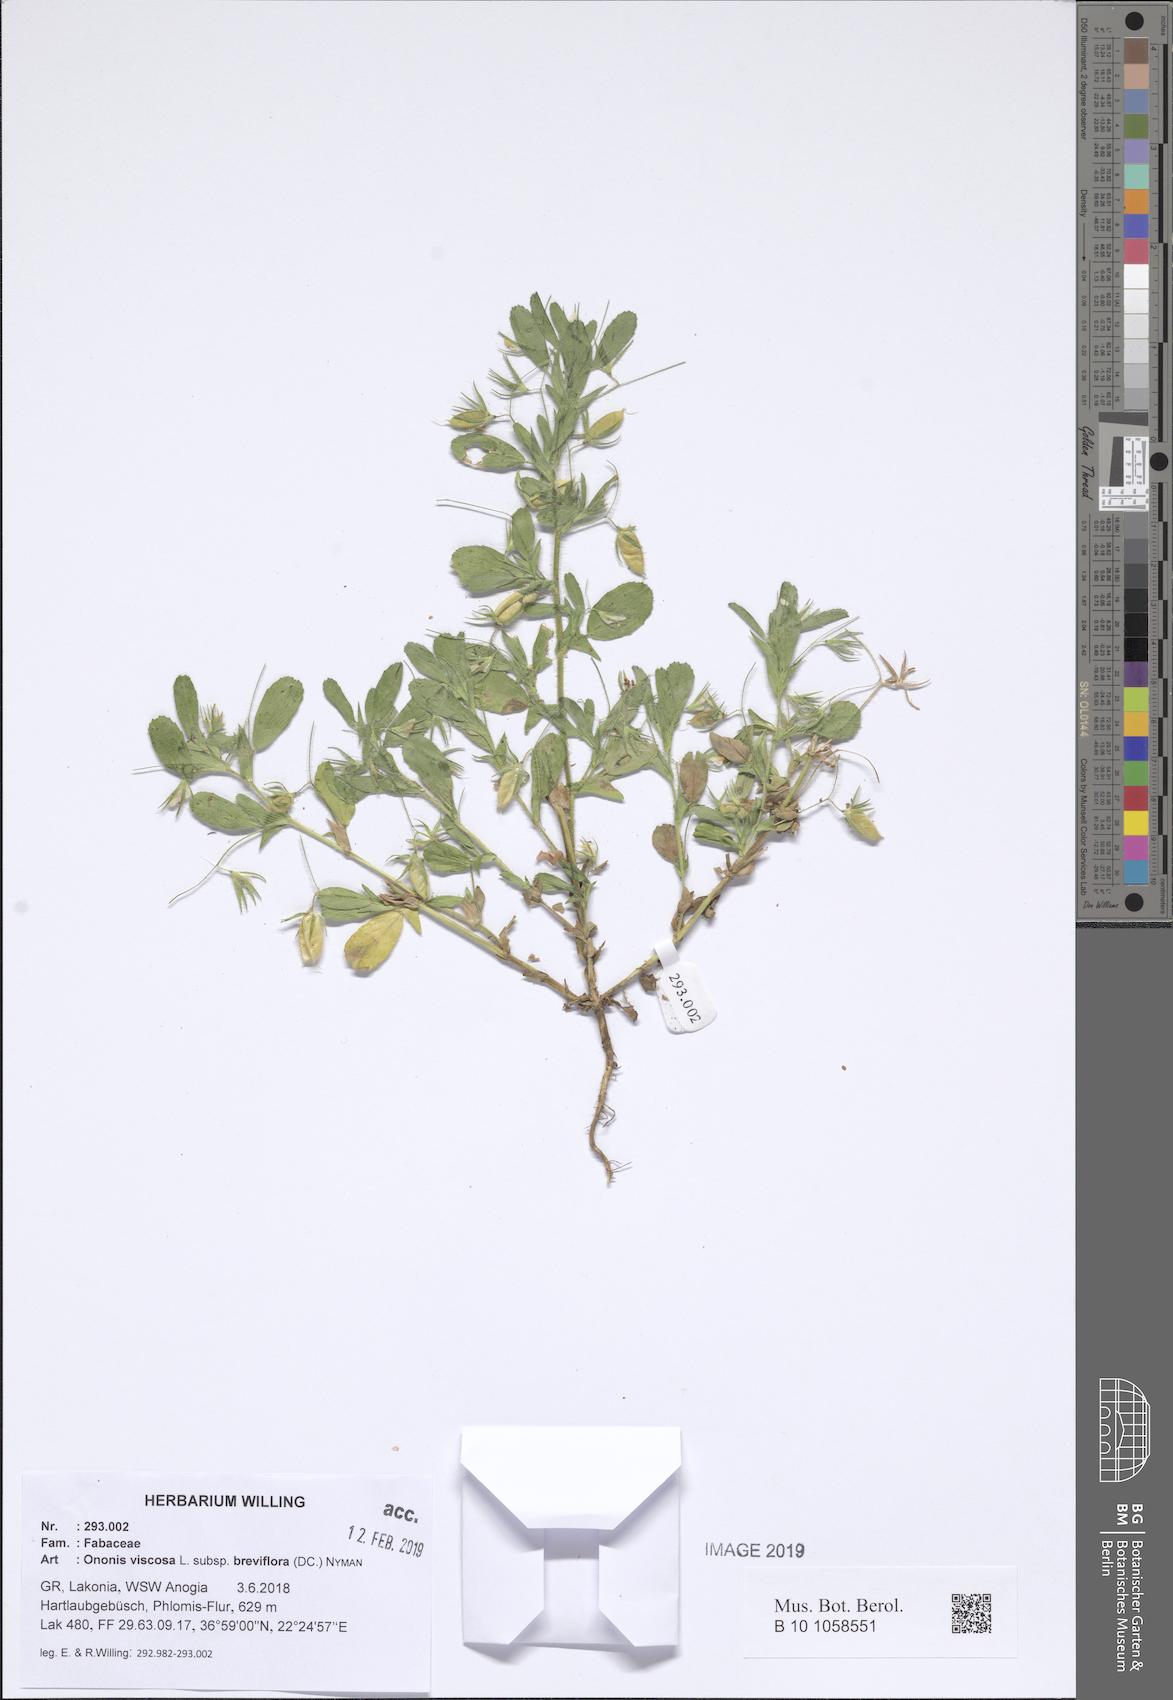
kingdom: Plantae
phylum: Tracheophyta
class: Magnoliopsida
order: Fabales
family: Fabaceae
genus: Ononis
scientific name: Ononis viscosa
